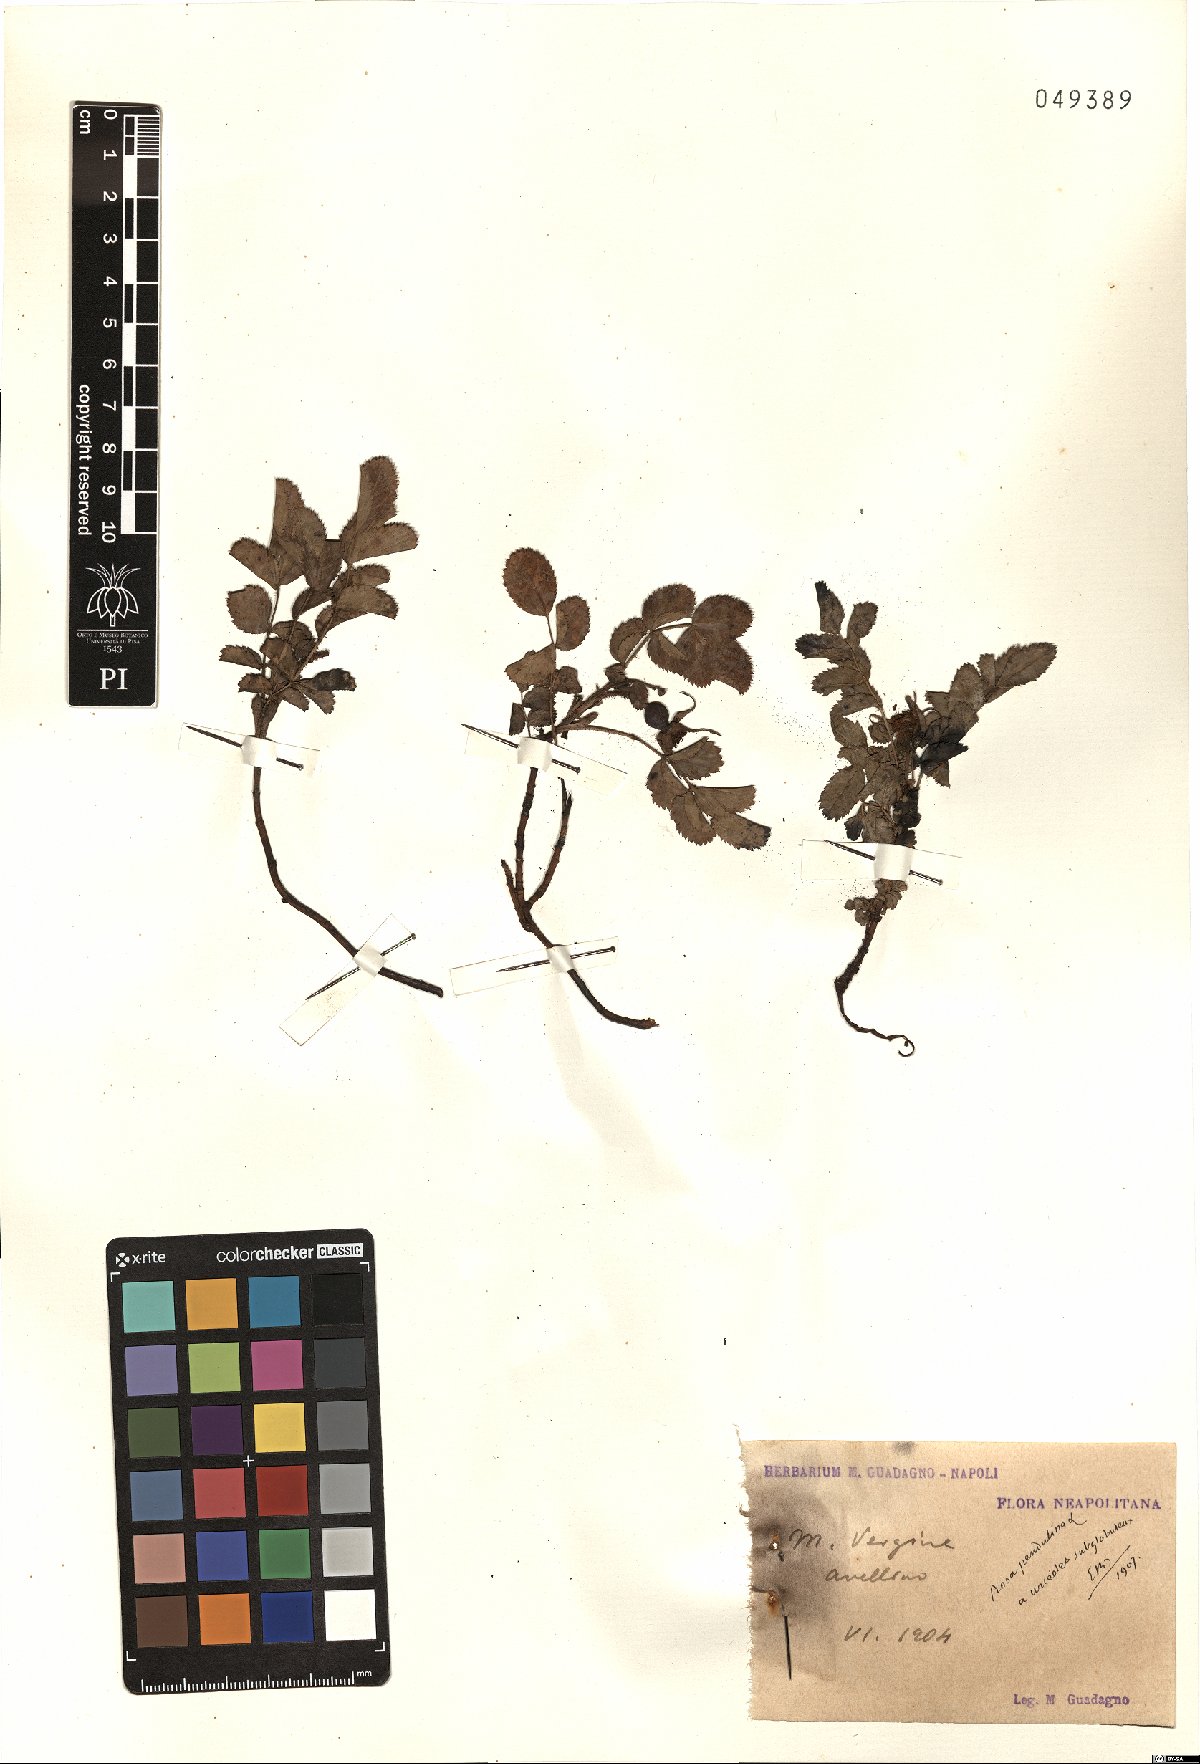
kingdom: Plantae
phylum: Tracheophyta
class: Magnoliopsida
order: Rosales
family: Rosaceae
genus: Rosa
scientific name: Rosa pendulina
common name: Alpine rose
